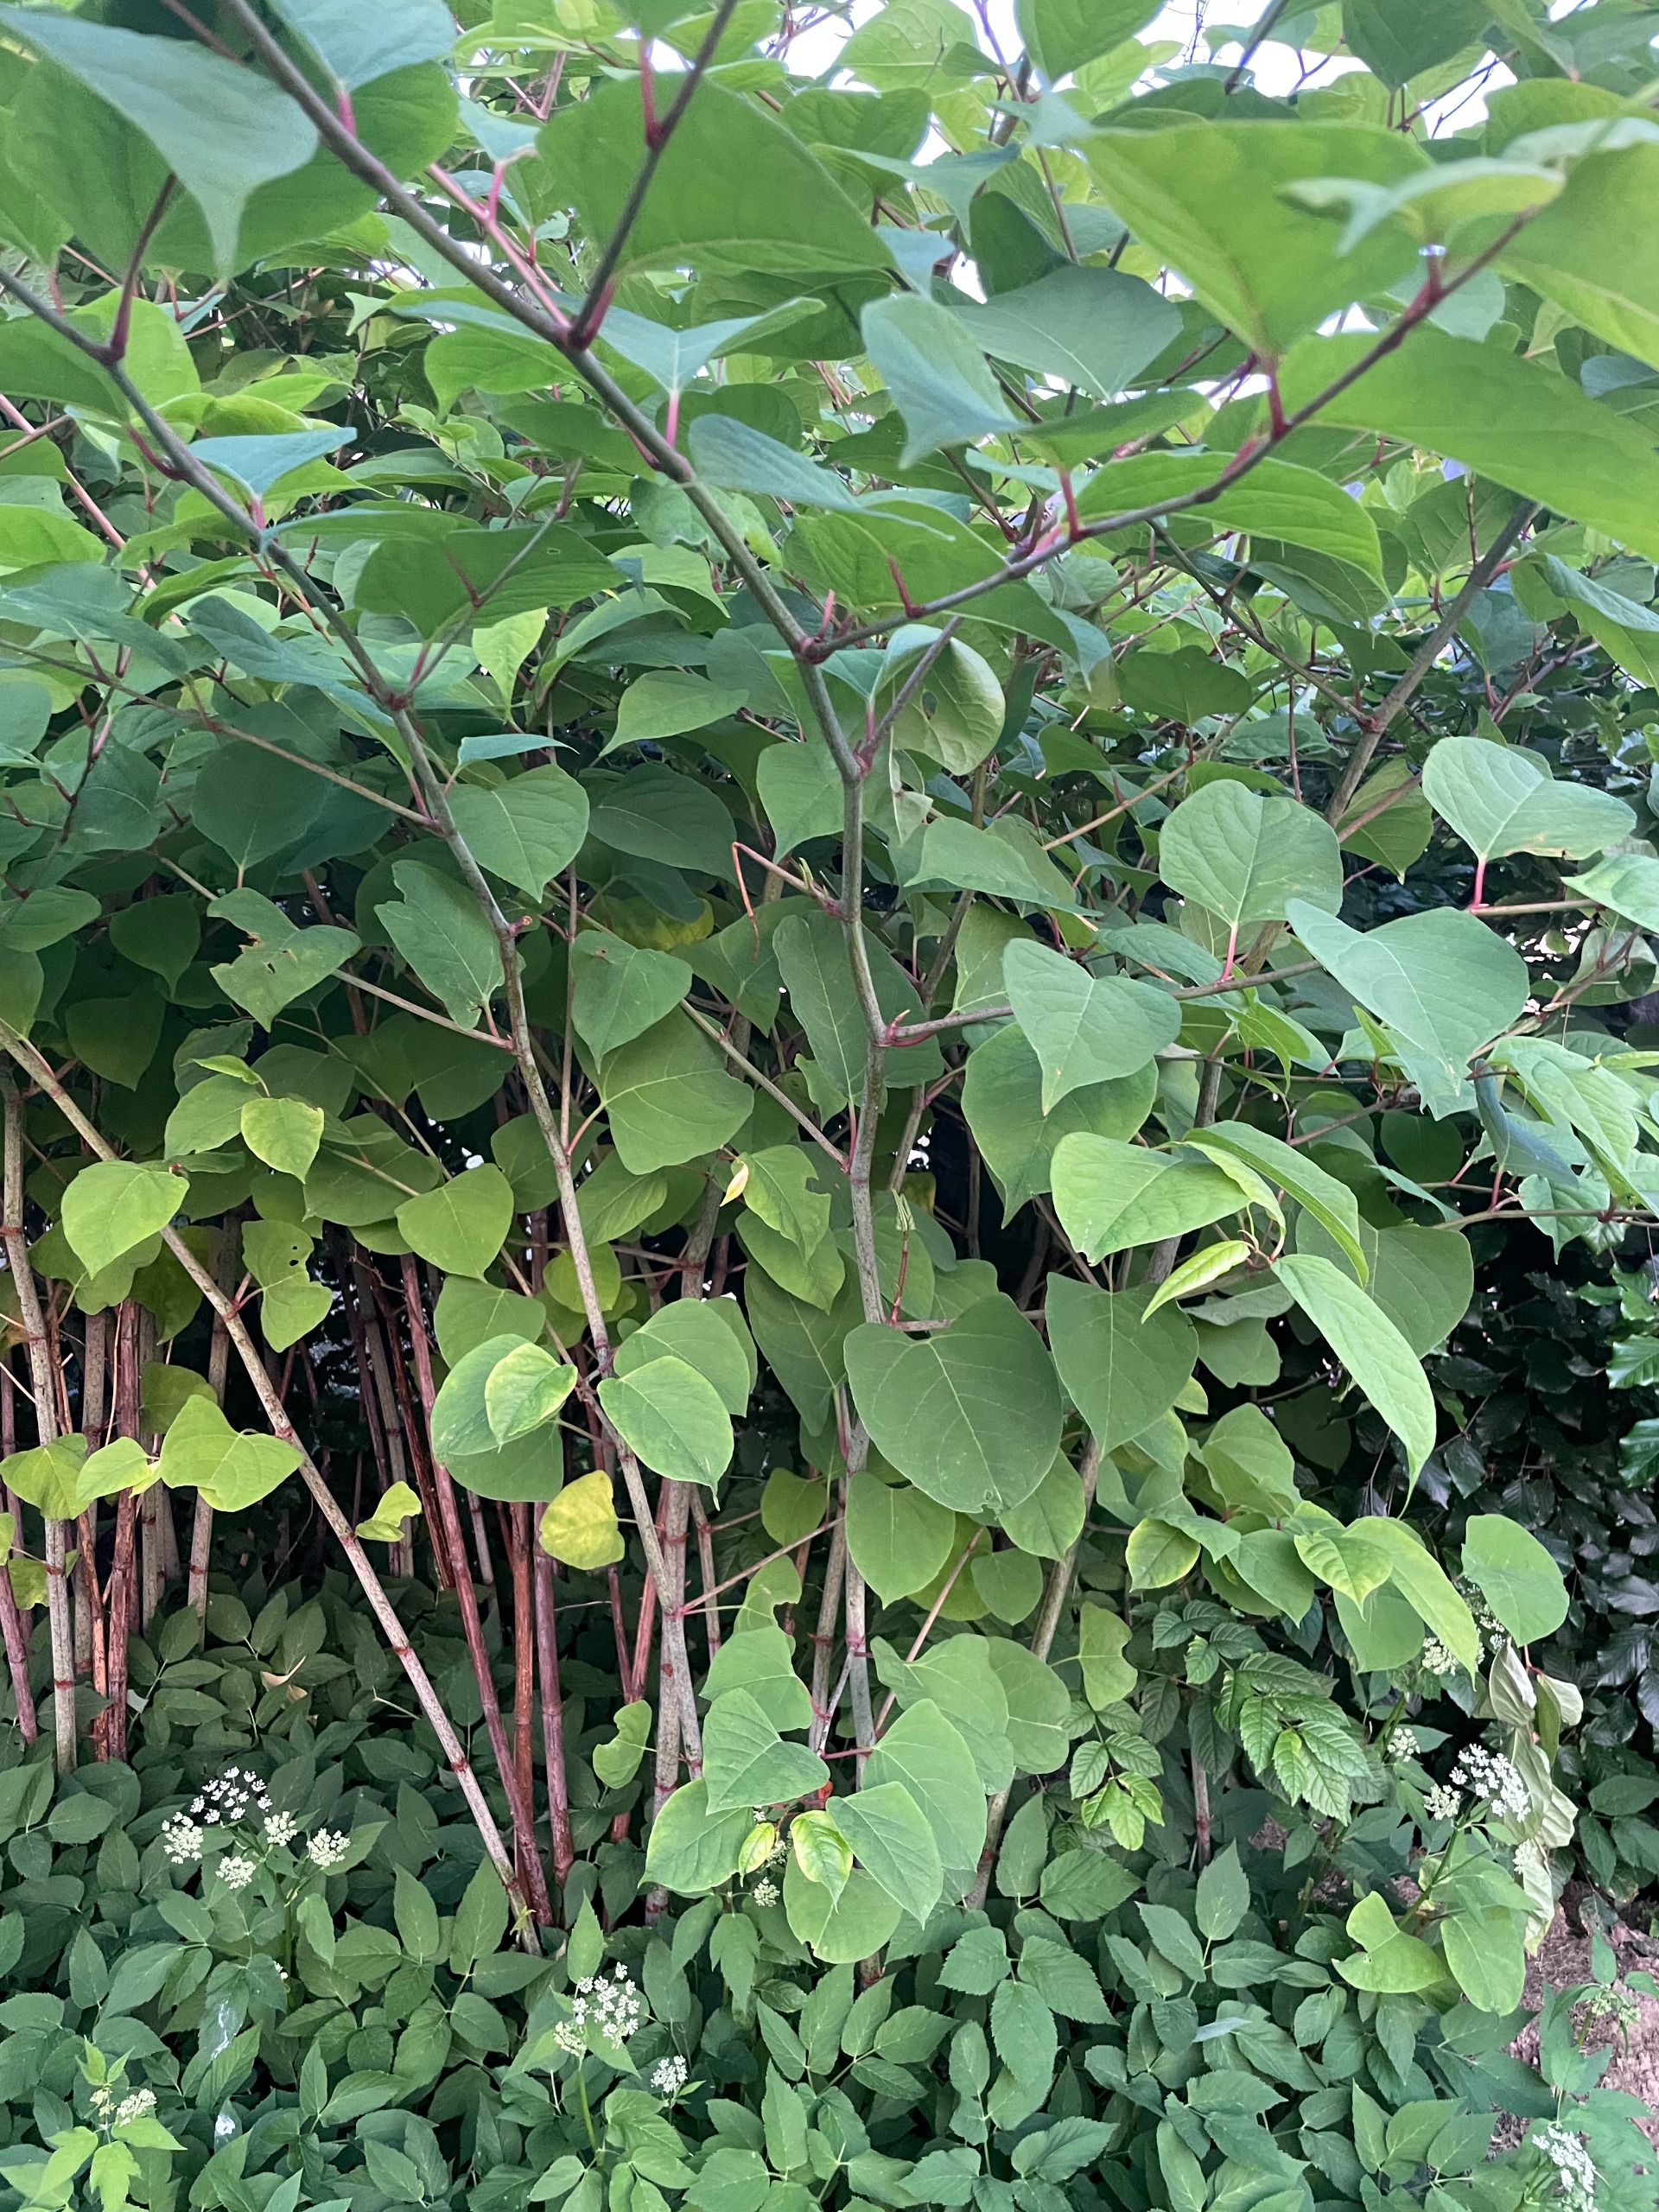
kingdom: Plantae
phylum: Tracheophyta
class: Magnoliopsida
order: Caryophyllales
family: Polygonaceae
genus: Reynoutria
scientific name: Reynoutria japonica
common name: Japan-pileurt
